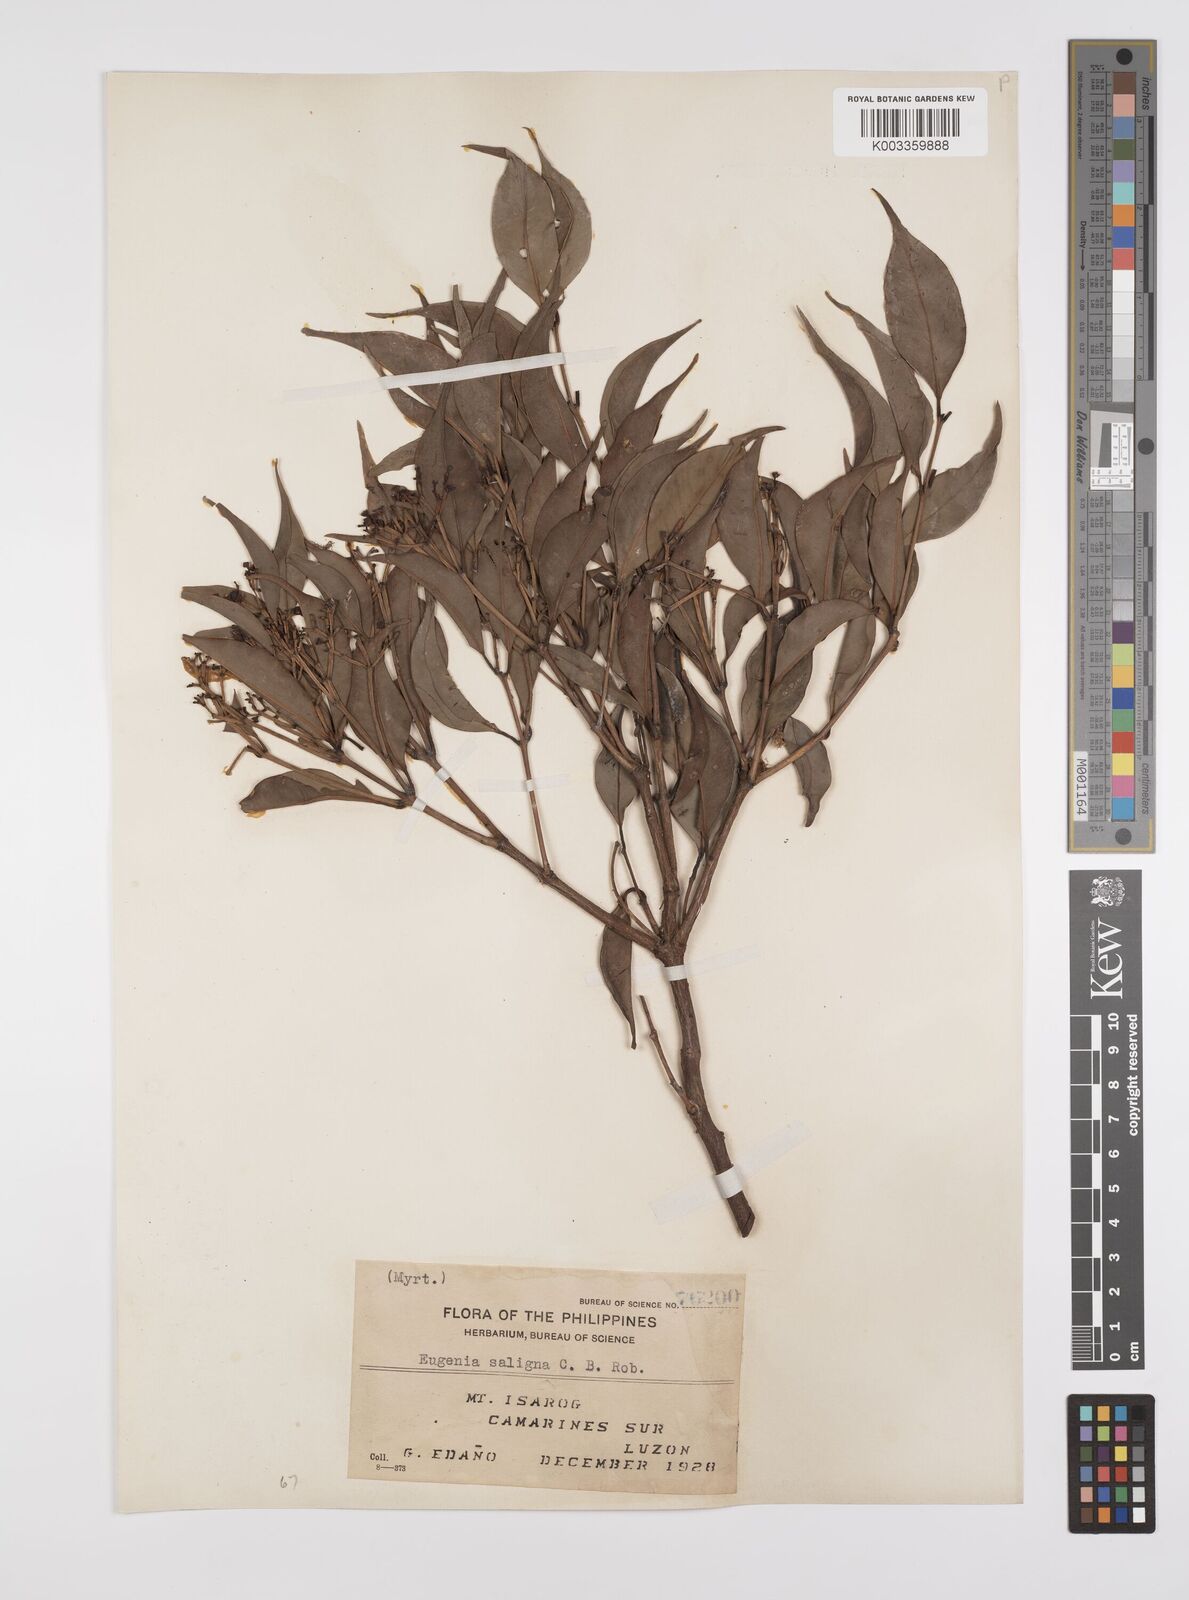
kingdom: Plantae
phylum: Tracheophyta
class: Magnoliopsida
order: Myrtales
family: Myrtaceae
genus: Syzygium
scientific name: Syzygium
